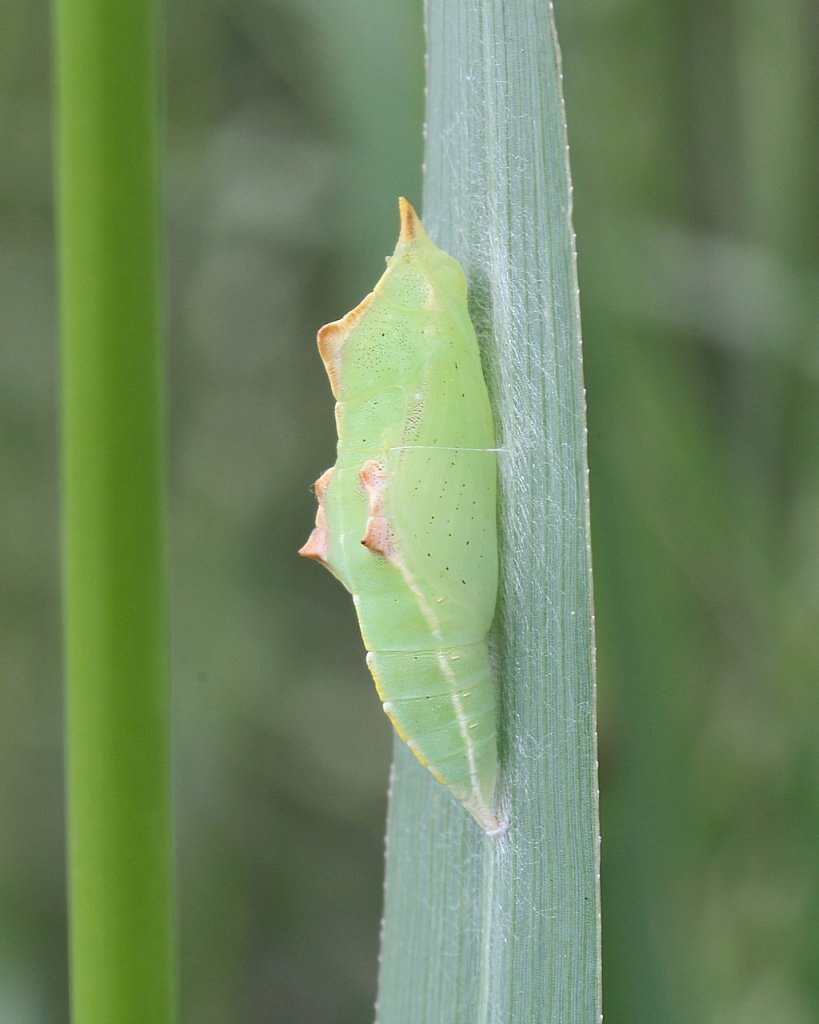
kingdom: Animalia
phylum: Arthropoda
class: Insecta
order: Lepidoptera
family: Pieridae
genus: Pieris
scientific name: Pieris rapae
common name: Cabbage White
